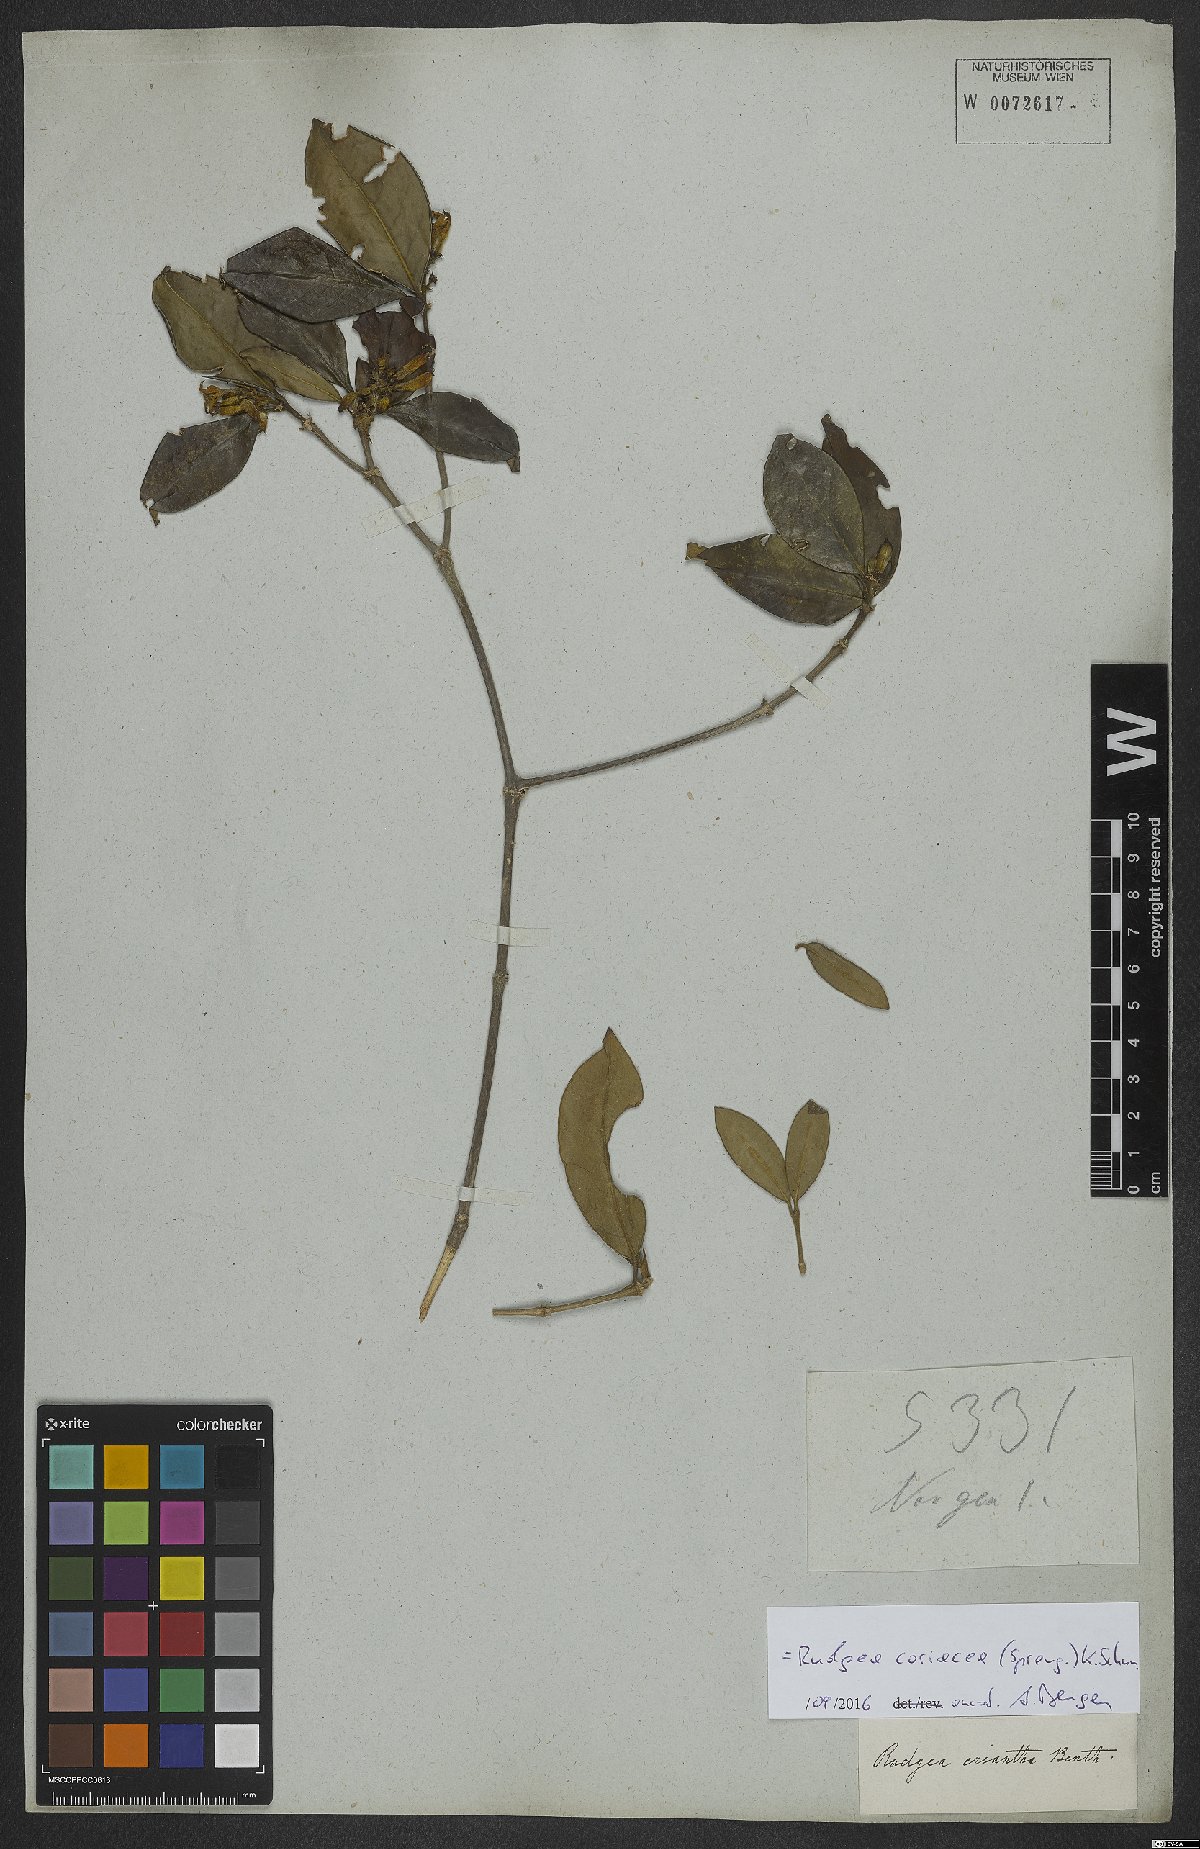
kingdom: Plantae
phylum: Tracheophyta
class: Magnoliopsida
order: Gentianales
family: Rubiaceae
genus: Rudgea
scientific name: Rudgea coriacea
